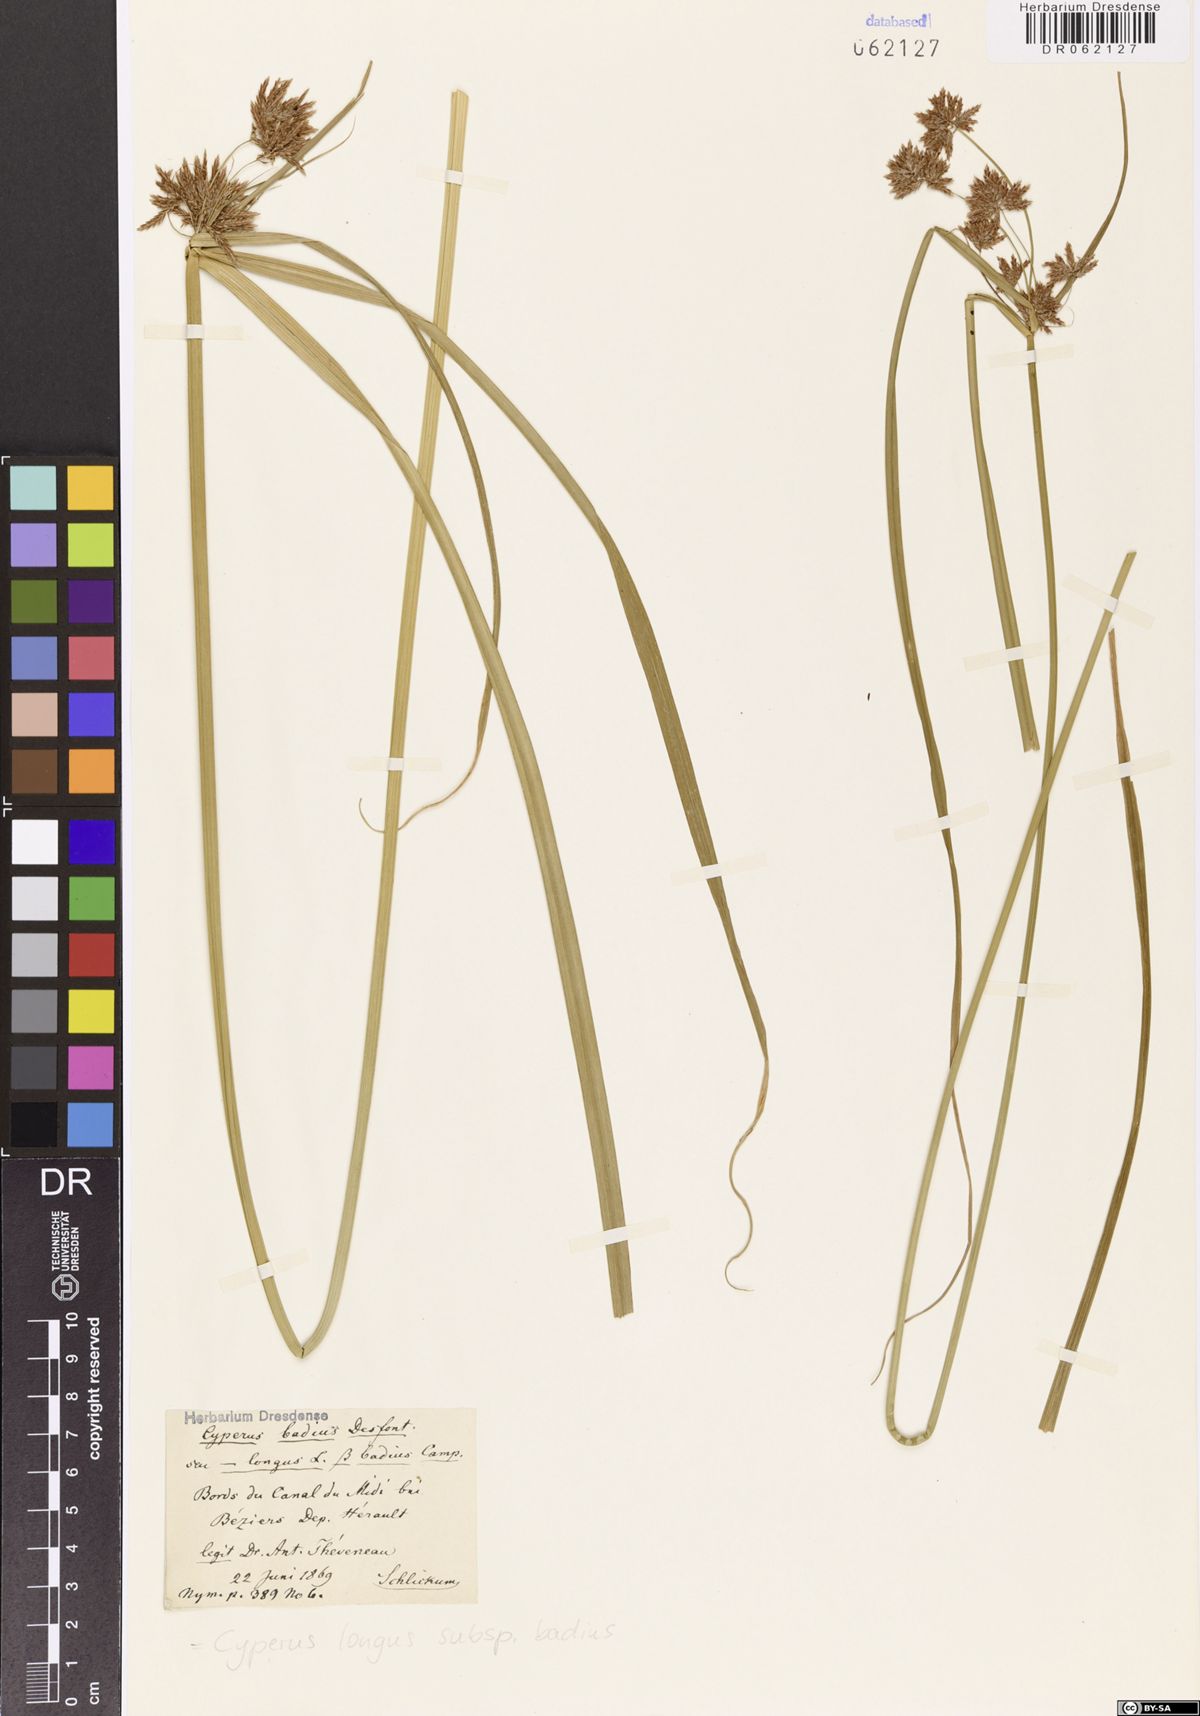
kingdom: Plantae
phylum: Tracheophyta
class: Liliopsida
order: Poales
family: Cyperaceae
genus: Cyperus
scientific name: Cyperus longus
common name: Galingale
